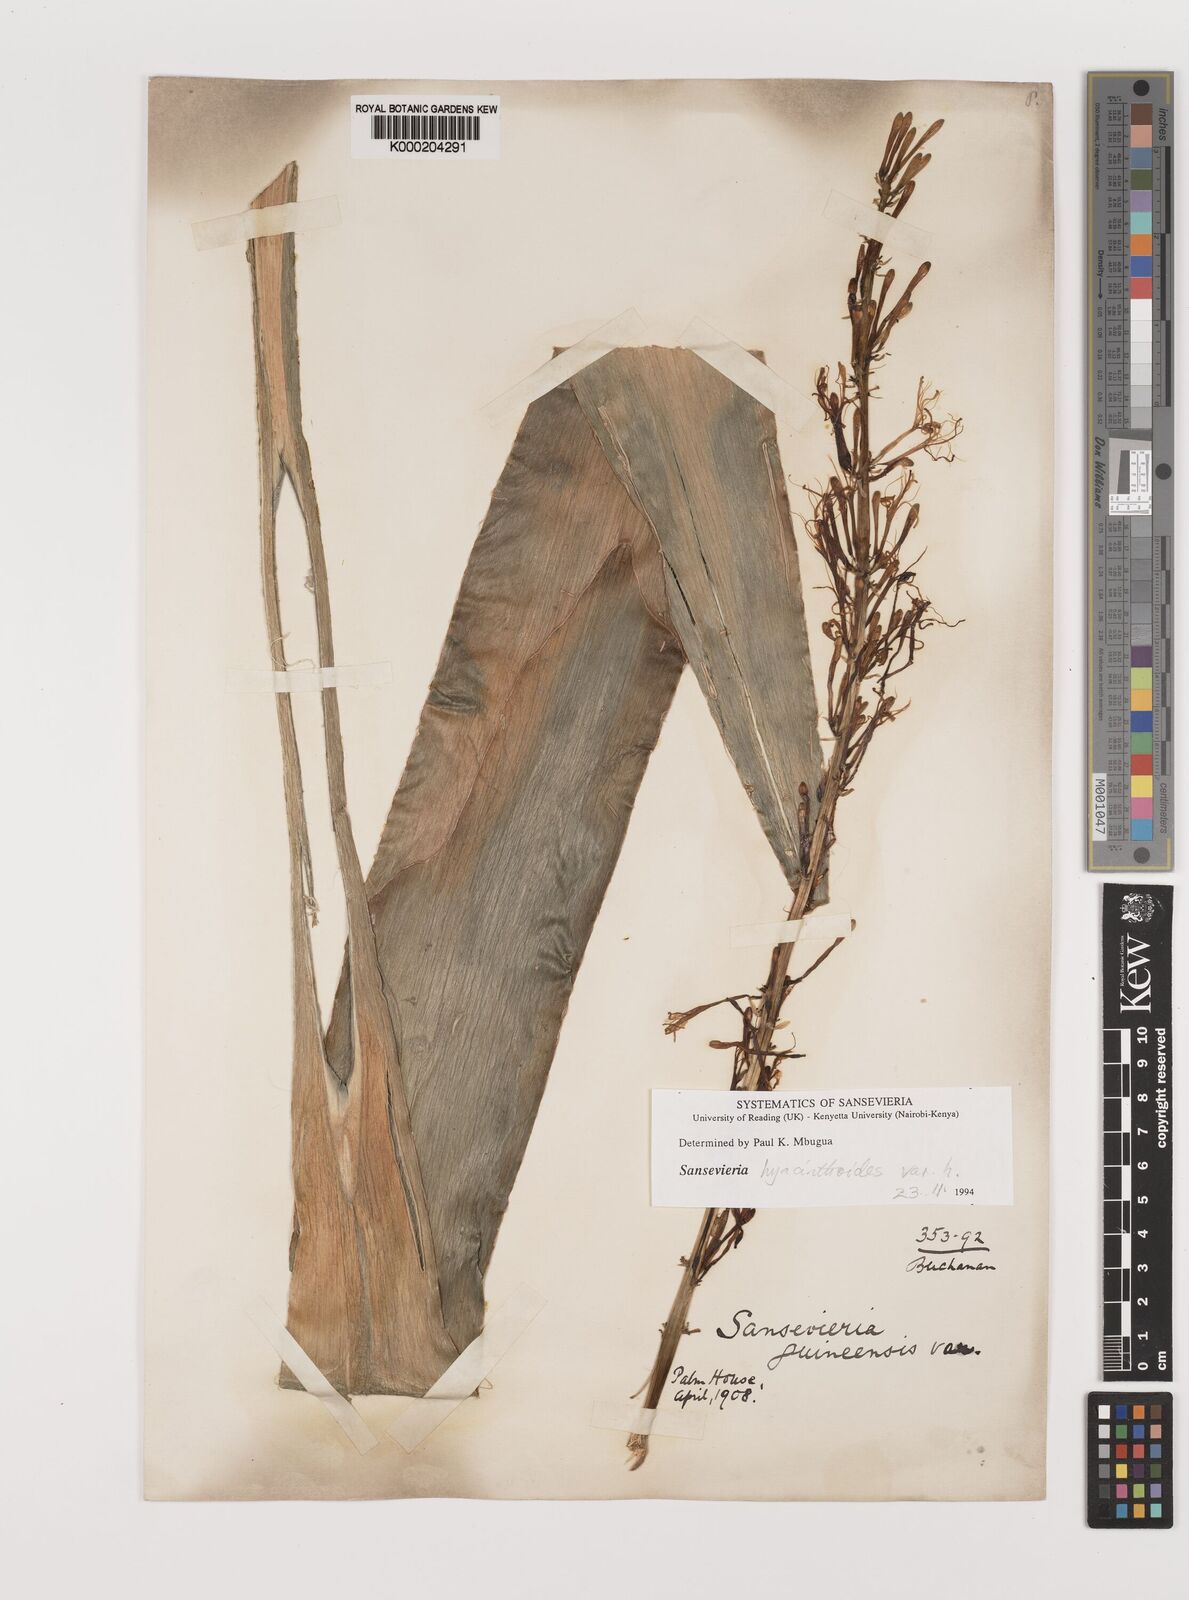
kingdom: Plantae
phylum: Tracheophyta
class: Liliopsida
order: Asparagales
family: Asparagaceae
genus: Dracaena
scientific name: Dracaena hyacinthoides
